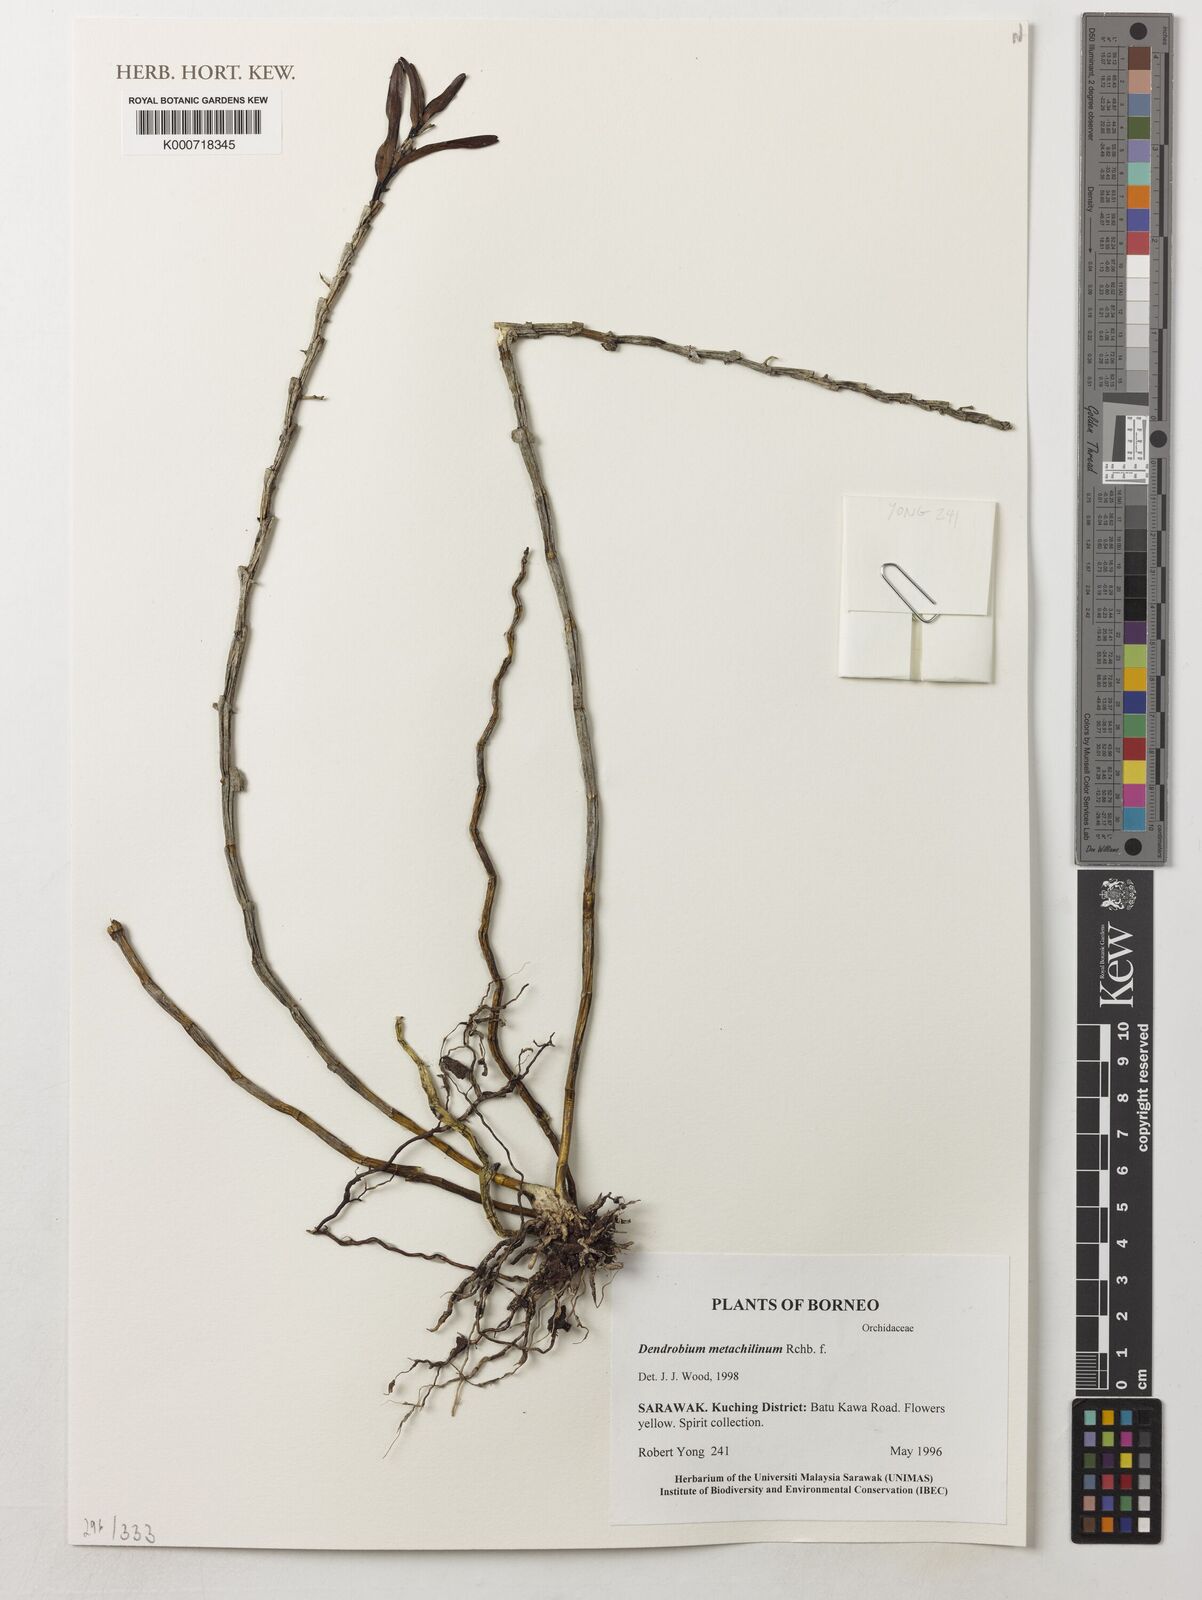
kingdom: Plantae
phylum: Tracheophyta
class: Liliopsida
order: Asparagales
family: Orchidaceae
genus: Dendrobium
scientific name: Dendrobium metachilinum
